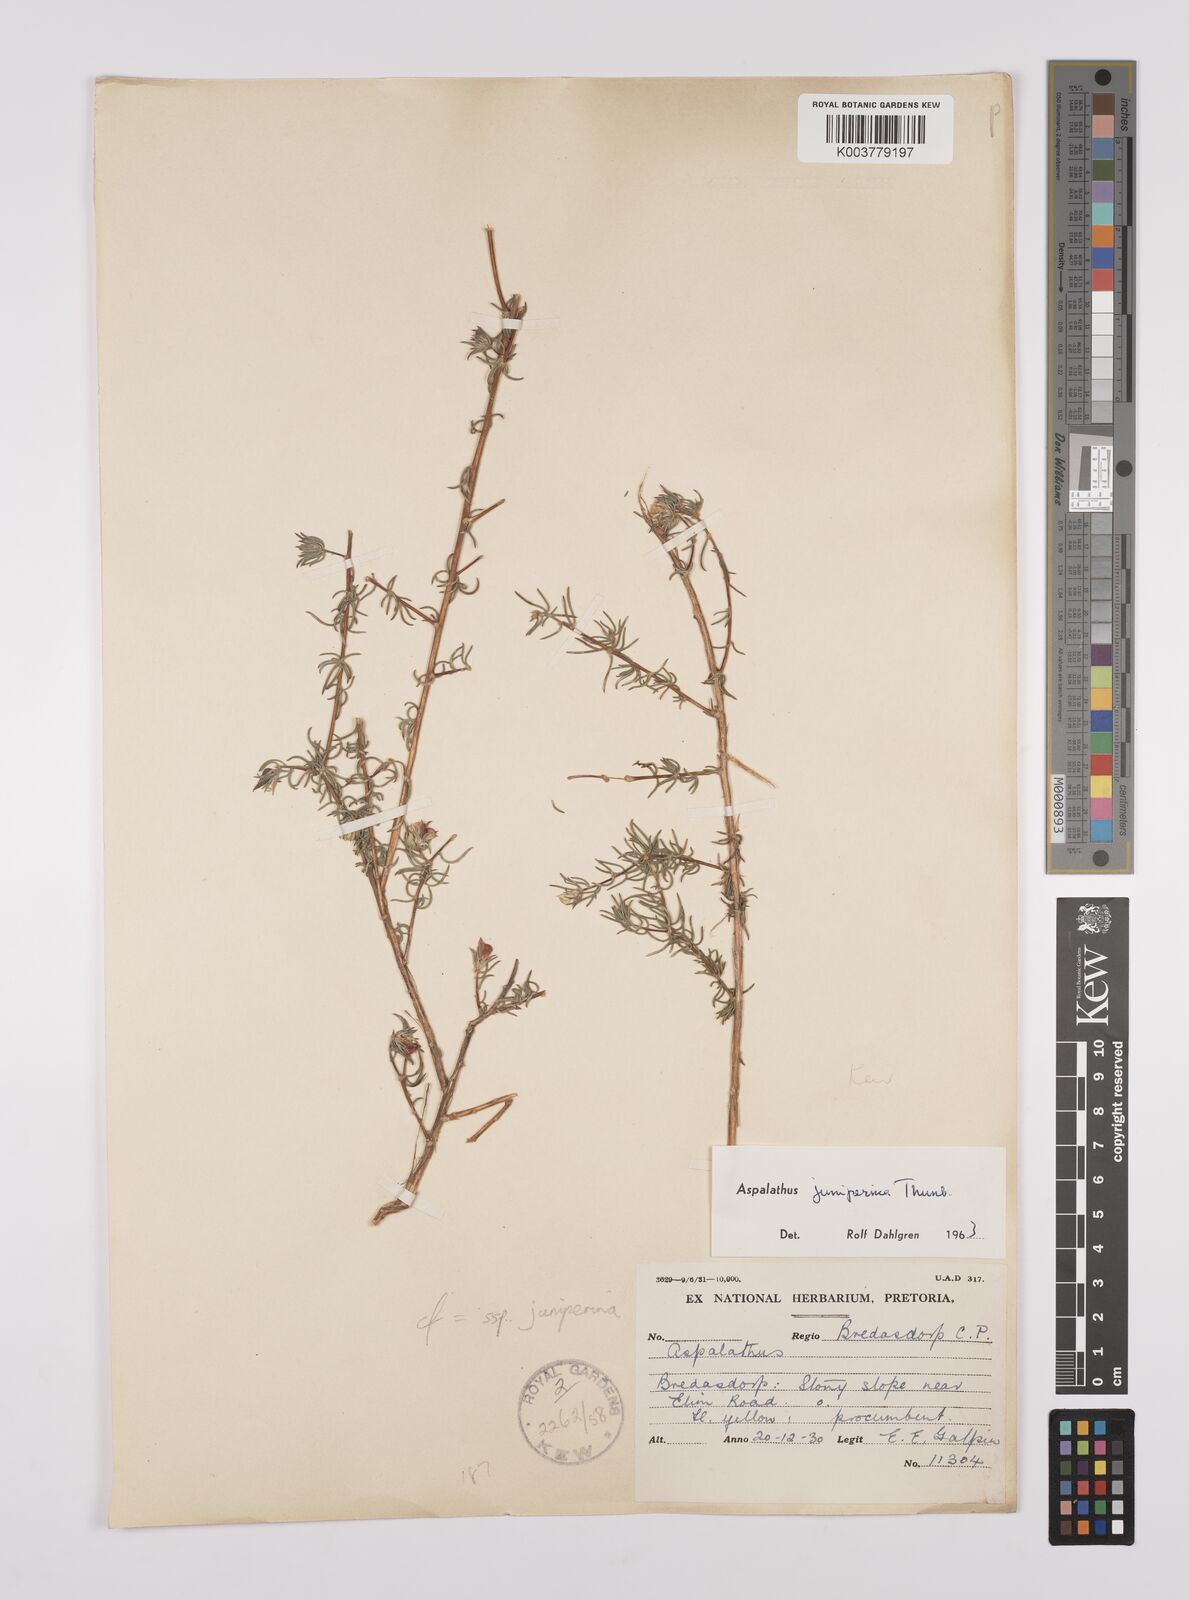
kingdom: Plantae
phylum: Tracheophyta
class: Magnoliopsida
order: Fabales
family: Fabaceae
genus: Aspalathus
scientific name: Aspalathus juniperina
